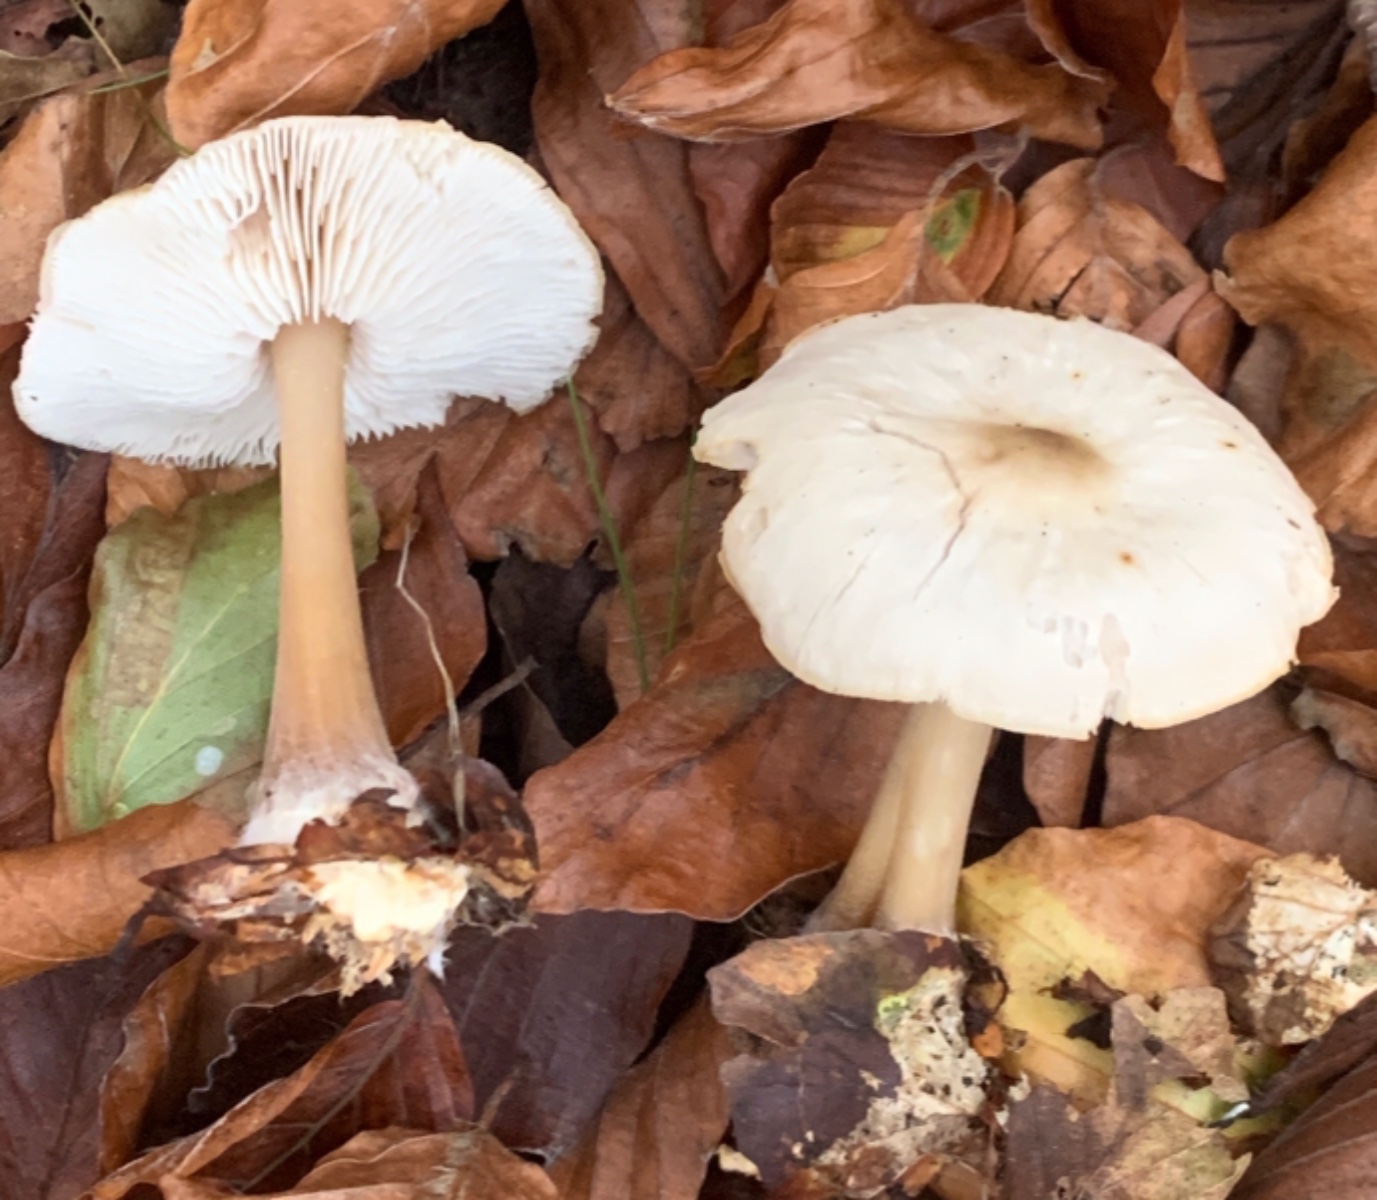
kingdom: Fungi
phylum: Basidiomycota
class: Agaricomycetes
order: Agaricales
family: Omphalotaceae
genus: Rhodocollybia
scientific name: Rhodocollybia asema
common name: horngrå fladhat
